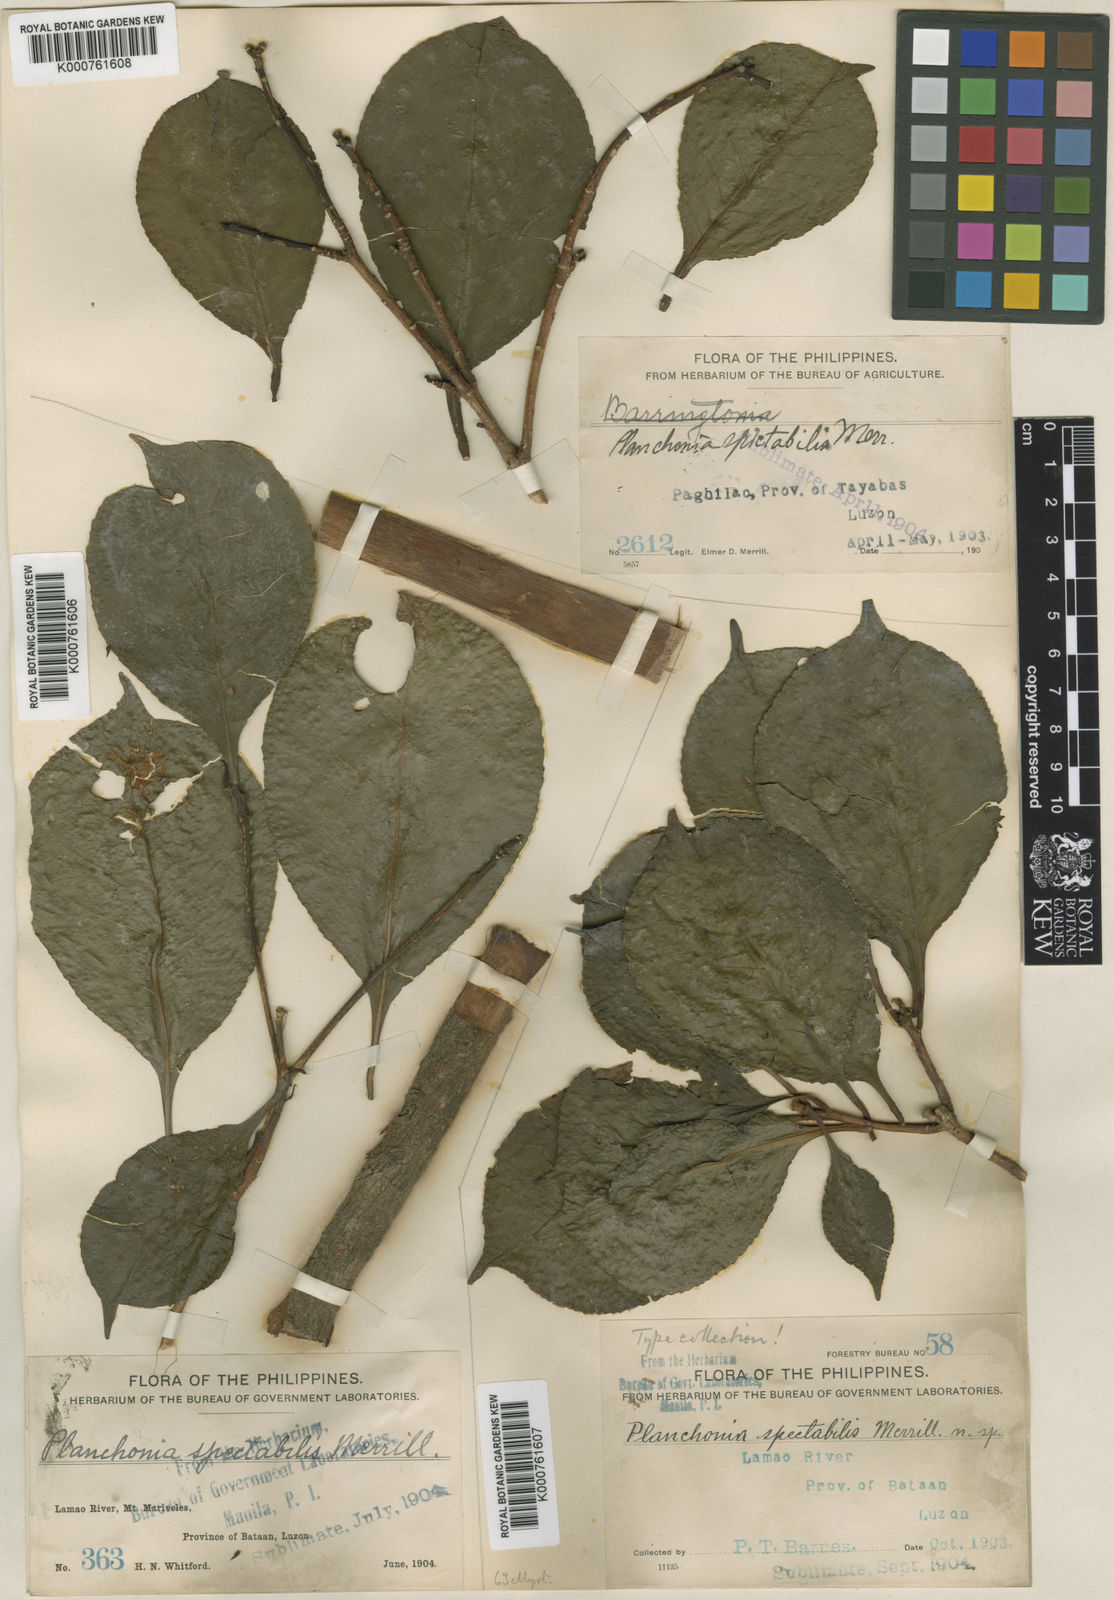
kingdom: Plantae
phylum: Tracheophyta
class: Magnoliopsida
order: Ericales
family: Lecythidaceae
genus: Planchonia
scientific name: Planchonia spectabilis
